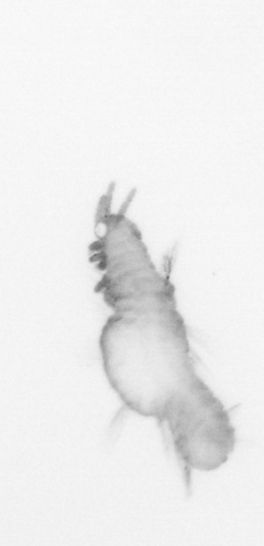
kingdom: Animalia
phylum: Annelida
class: Polychaeta
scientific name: Polychaeta
